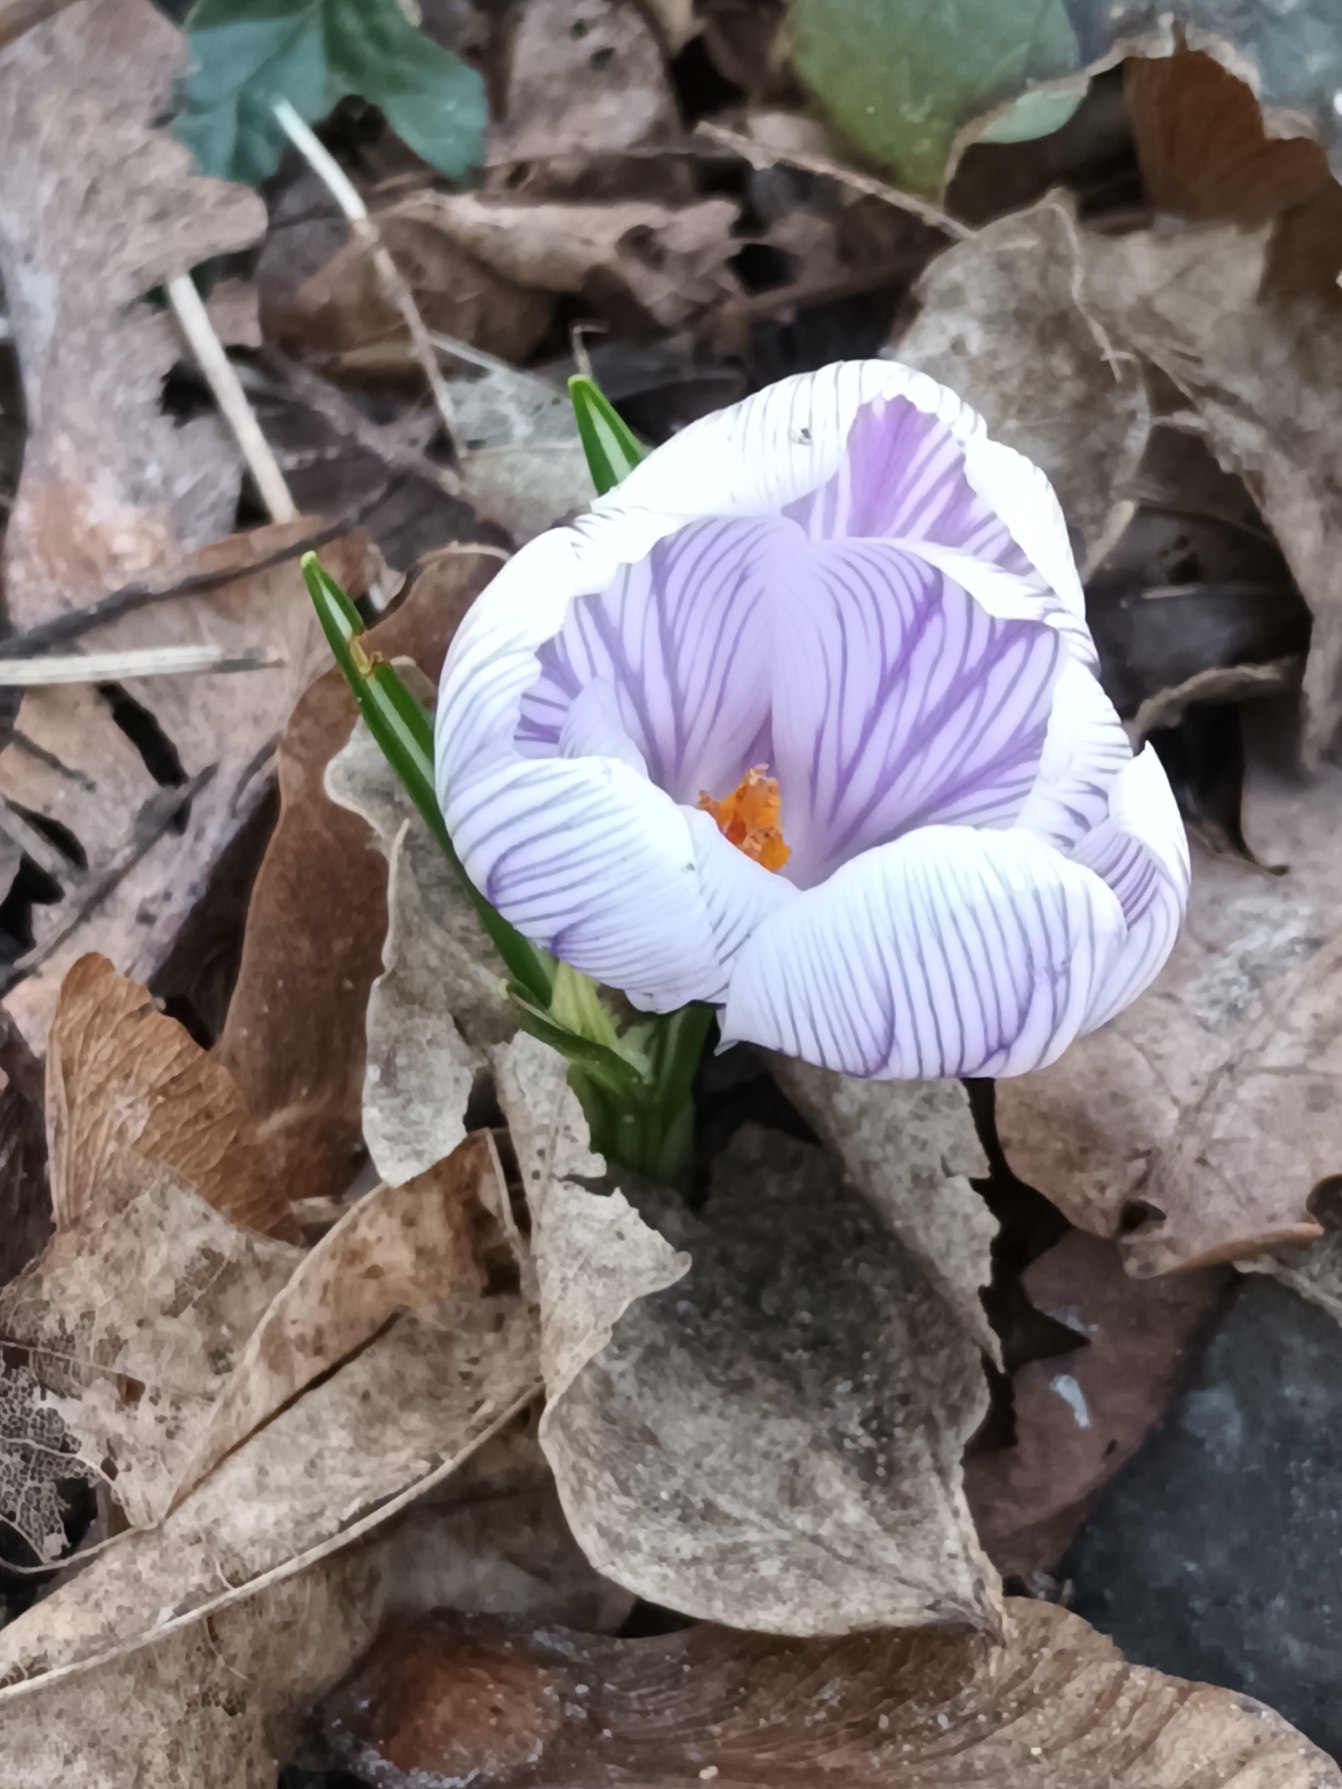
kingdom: Plantae
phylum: Tracheophyta
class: Liliopsida
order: Asparagales
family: Iridaceae
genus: Crocus
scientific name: Crocus vernus
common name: Vår-krokus
